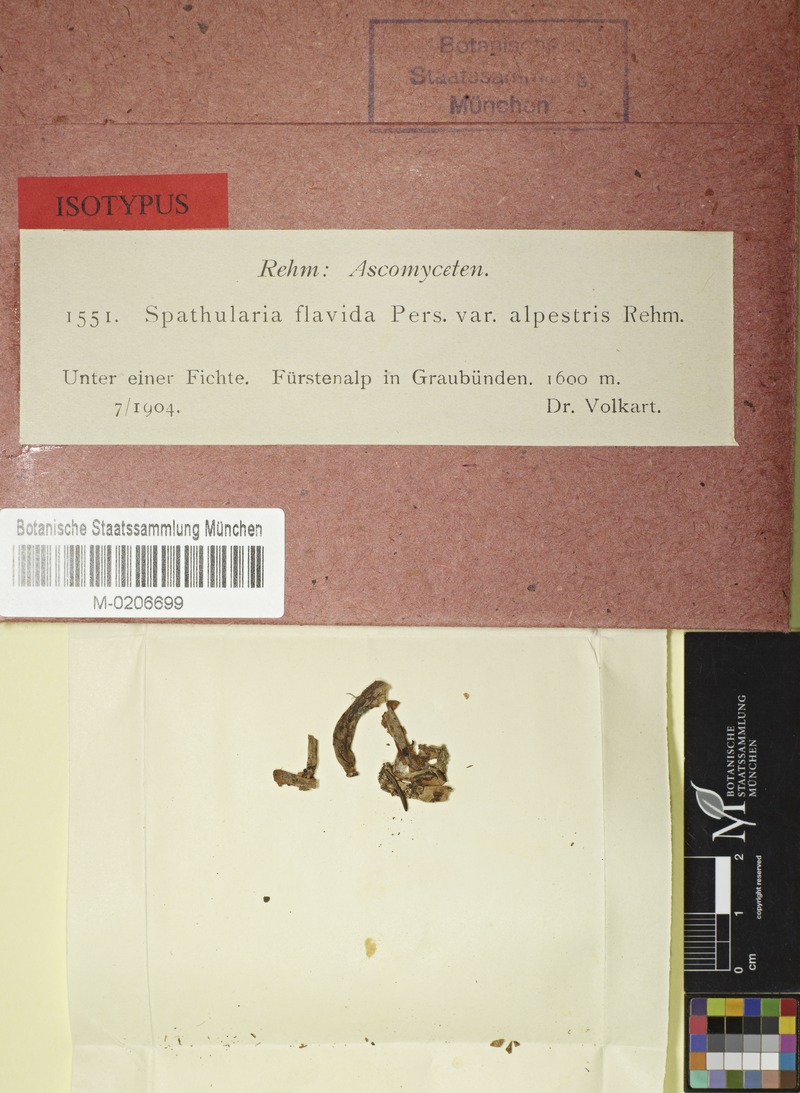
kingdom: Fungi
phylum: Ascomycota
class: Leotiomycetes
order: Rhytismatales
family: Cudoniaceae
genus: Spathularia
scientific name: Spathularia alpestris
